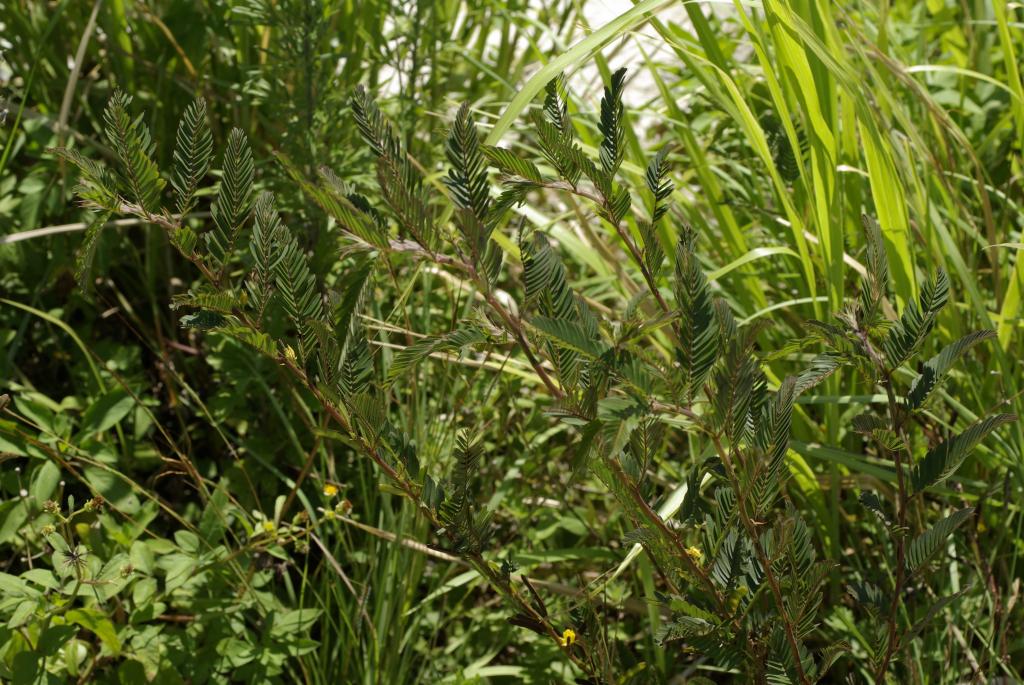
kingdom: Plantae
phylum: Tracheophyta
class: Magnoliopsida
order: Fabales
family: Fabaceae
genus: Chamaecrista
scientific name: Chamaecrista nictitans
